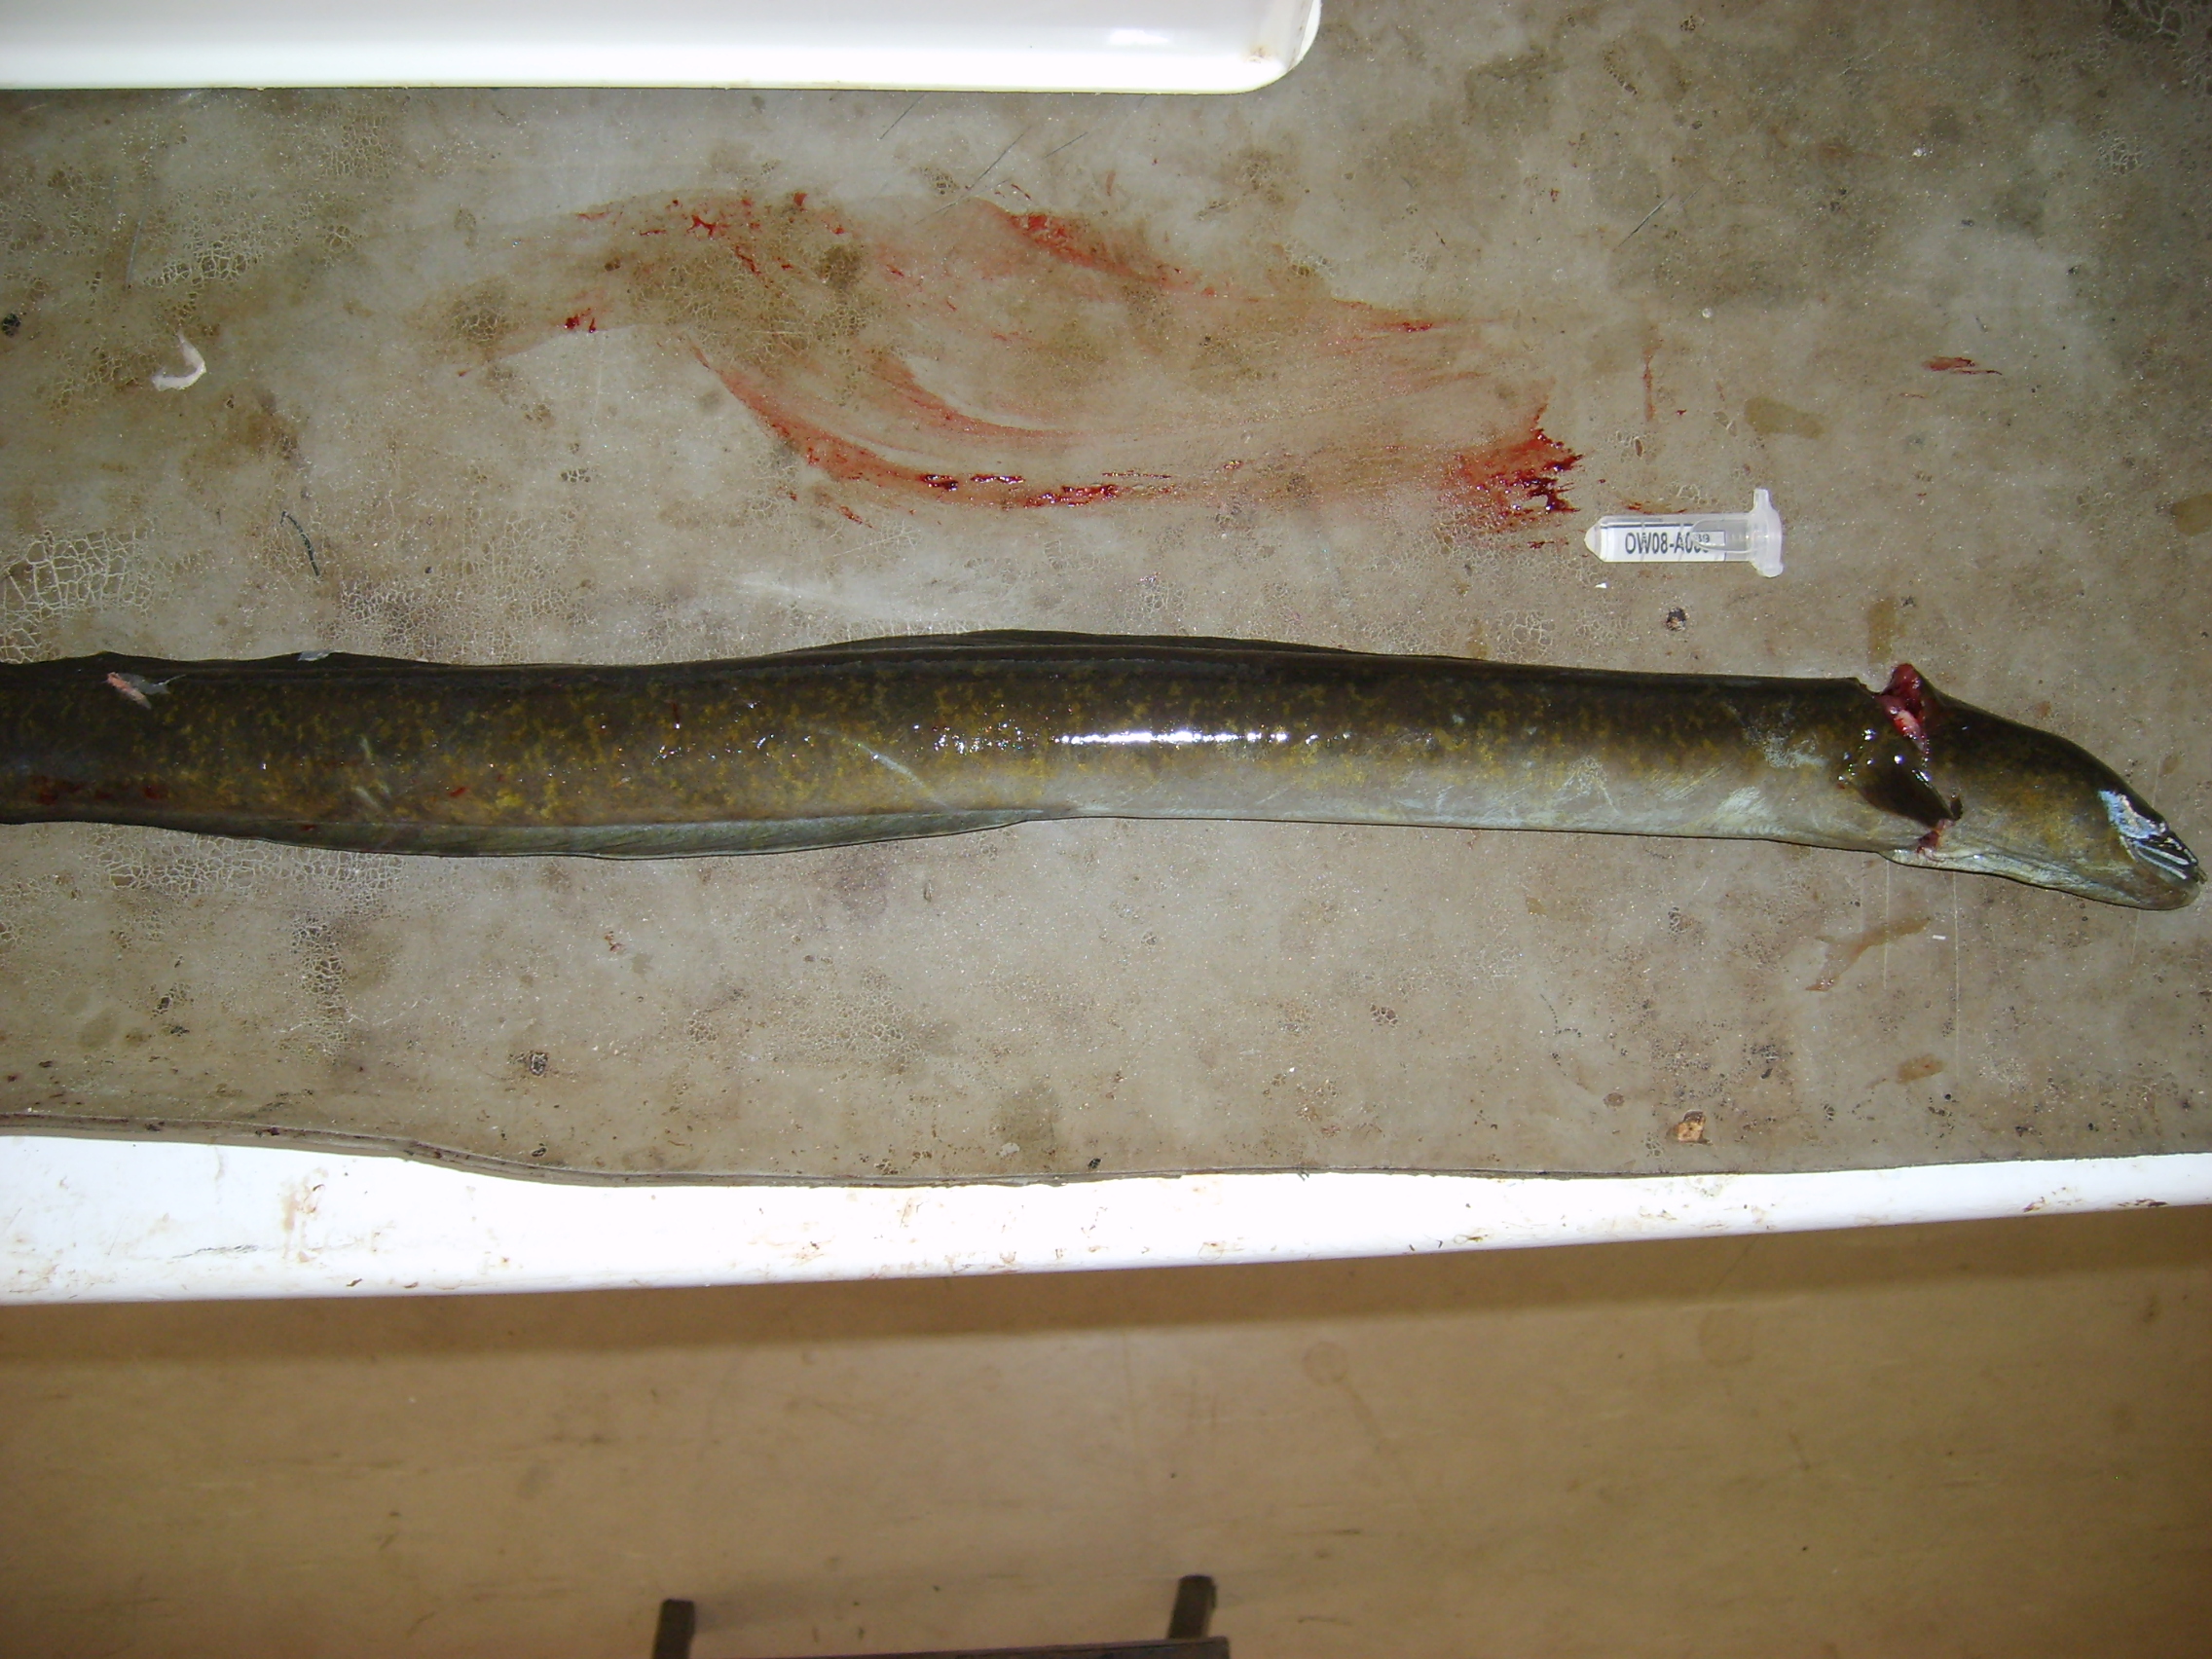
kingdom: Animalia
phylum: Chordata
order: Anguilliformes
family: Anguillidae
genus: Anguilla
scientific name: Anguilla marmorata
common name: Giant mottled eel
